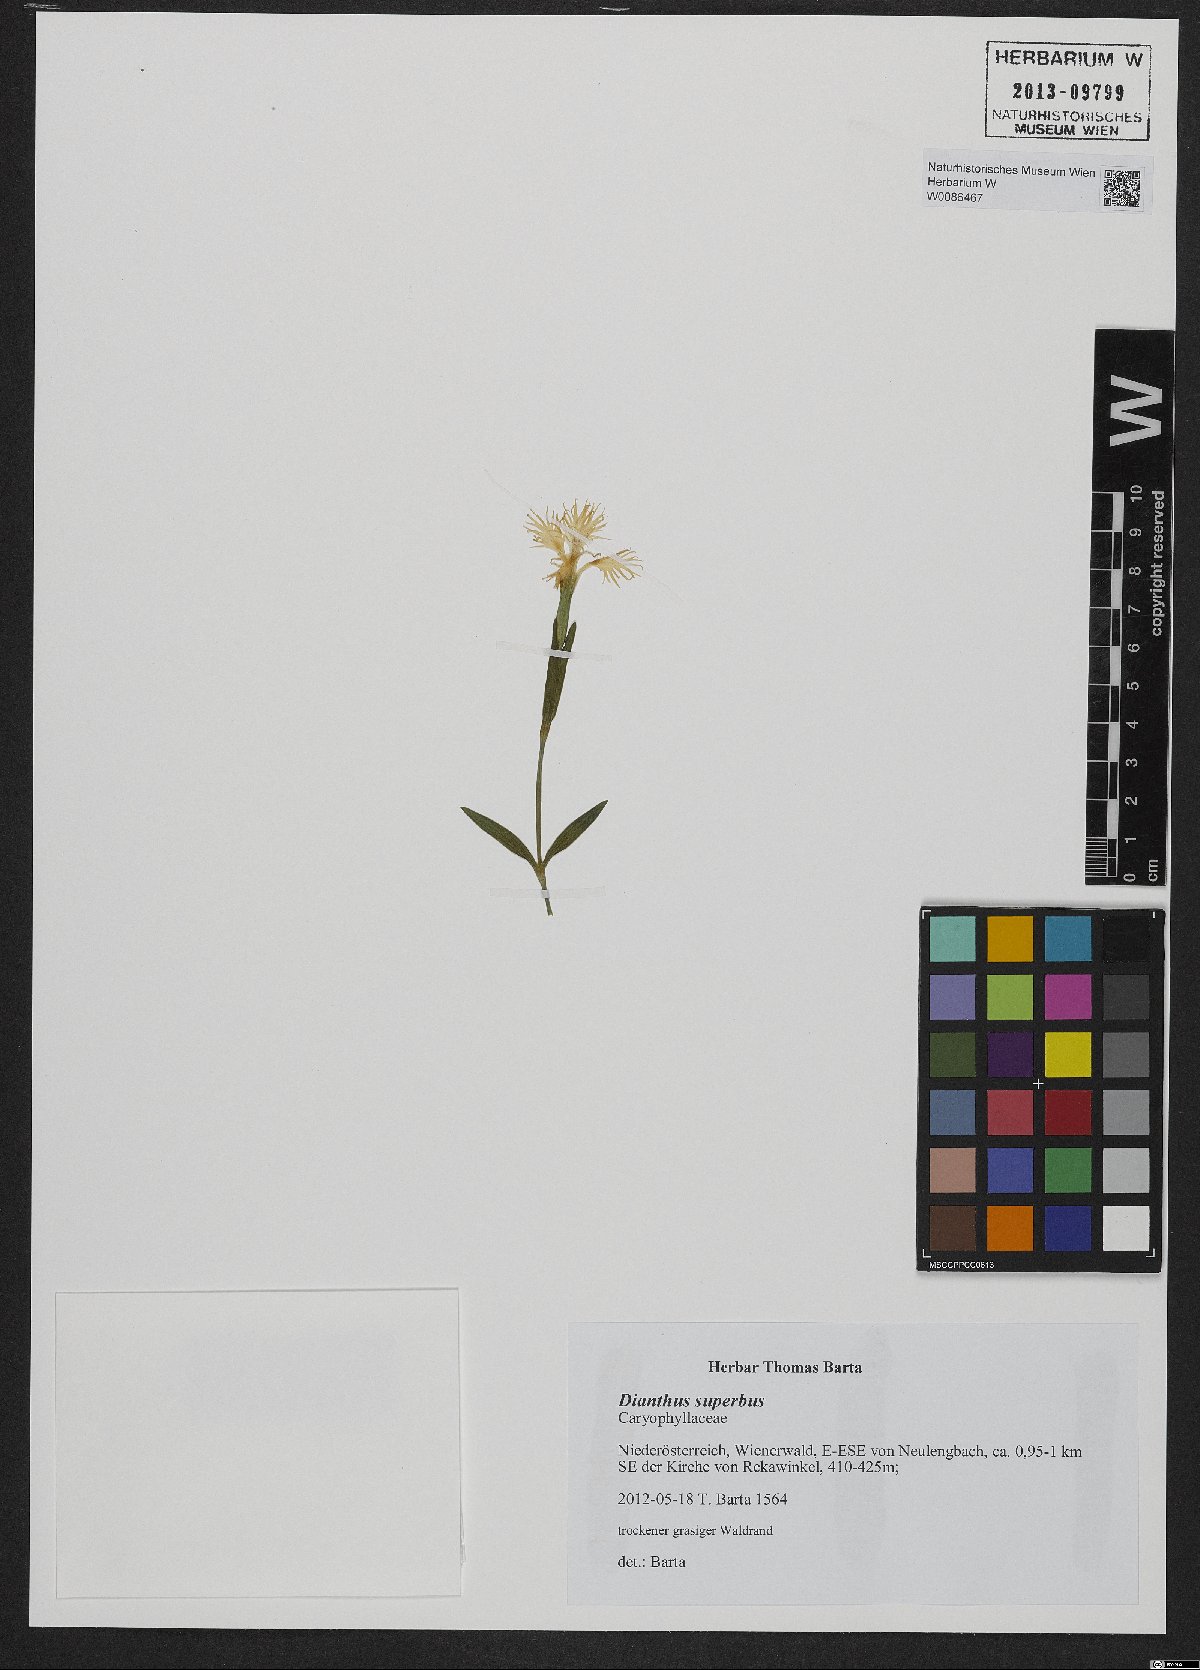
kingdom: Plantae
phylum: Tracheophyta
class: Magnoliopsida
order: Caryophyllales
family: Caryophyllaceae
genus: Dianthus
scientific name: Dianthus superbus
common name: Fringed pink
